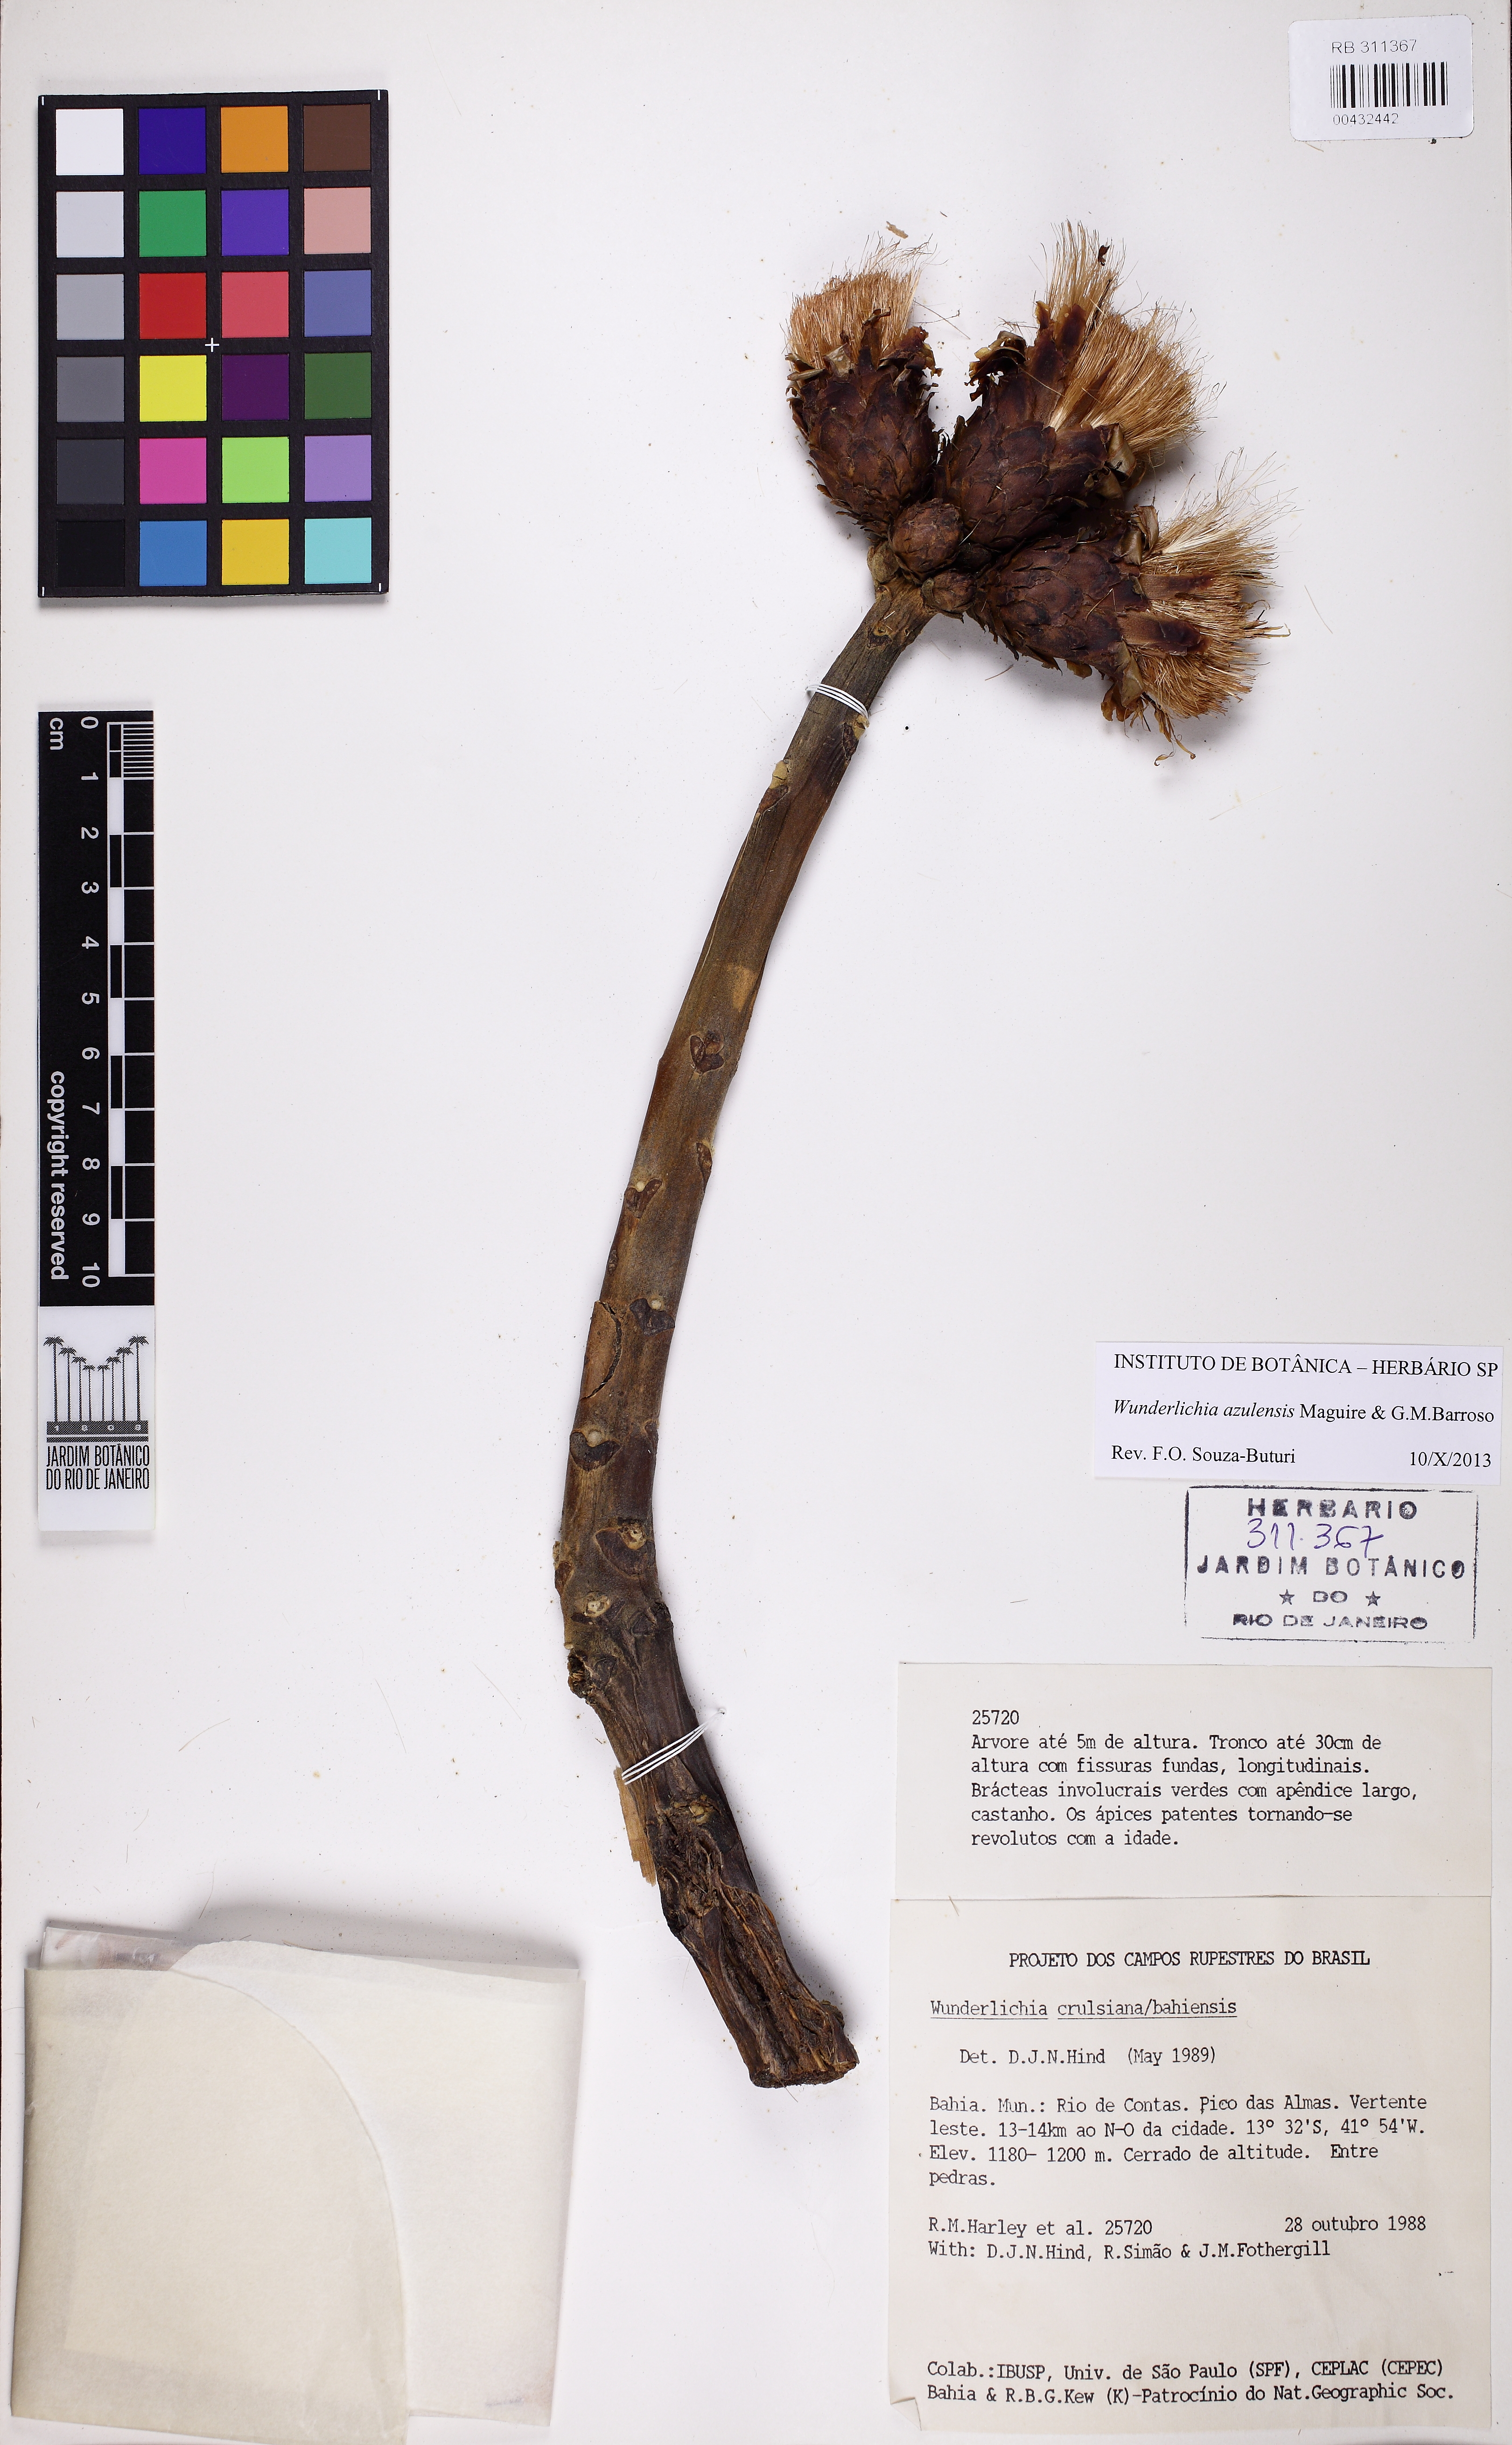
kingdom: Plantae
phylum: Tracheophyta
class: Magnoliopsida
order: Asterales
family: Asteraceae
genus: Wunderlichia
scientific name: Wunderlichia crulsiana
